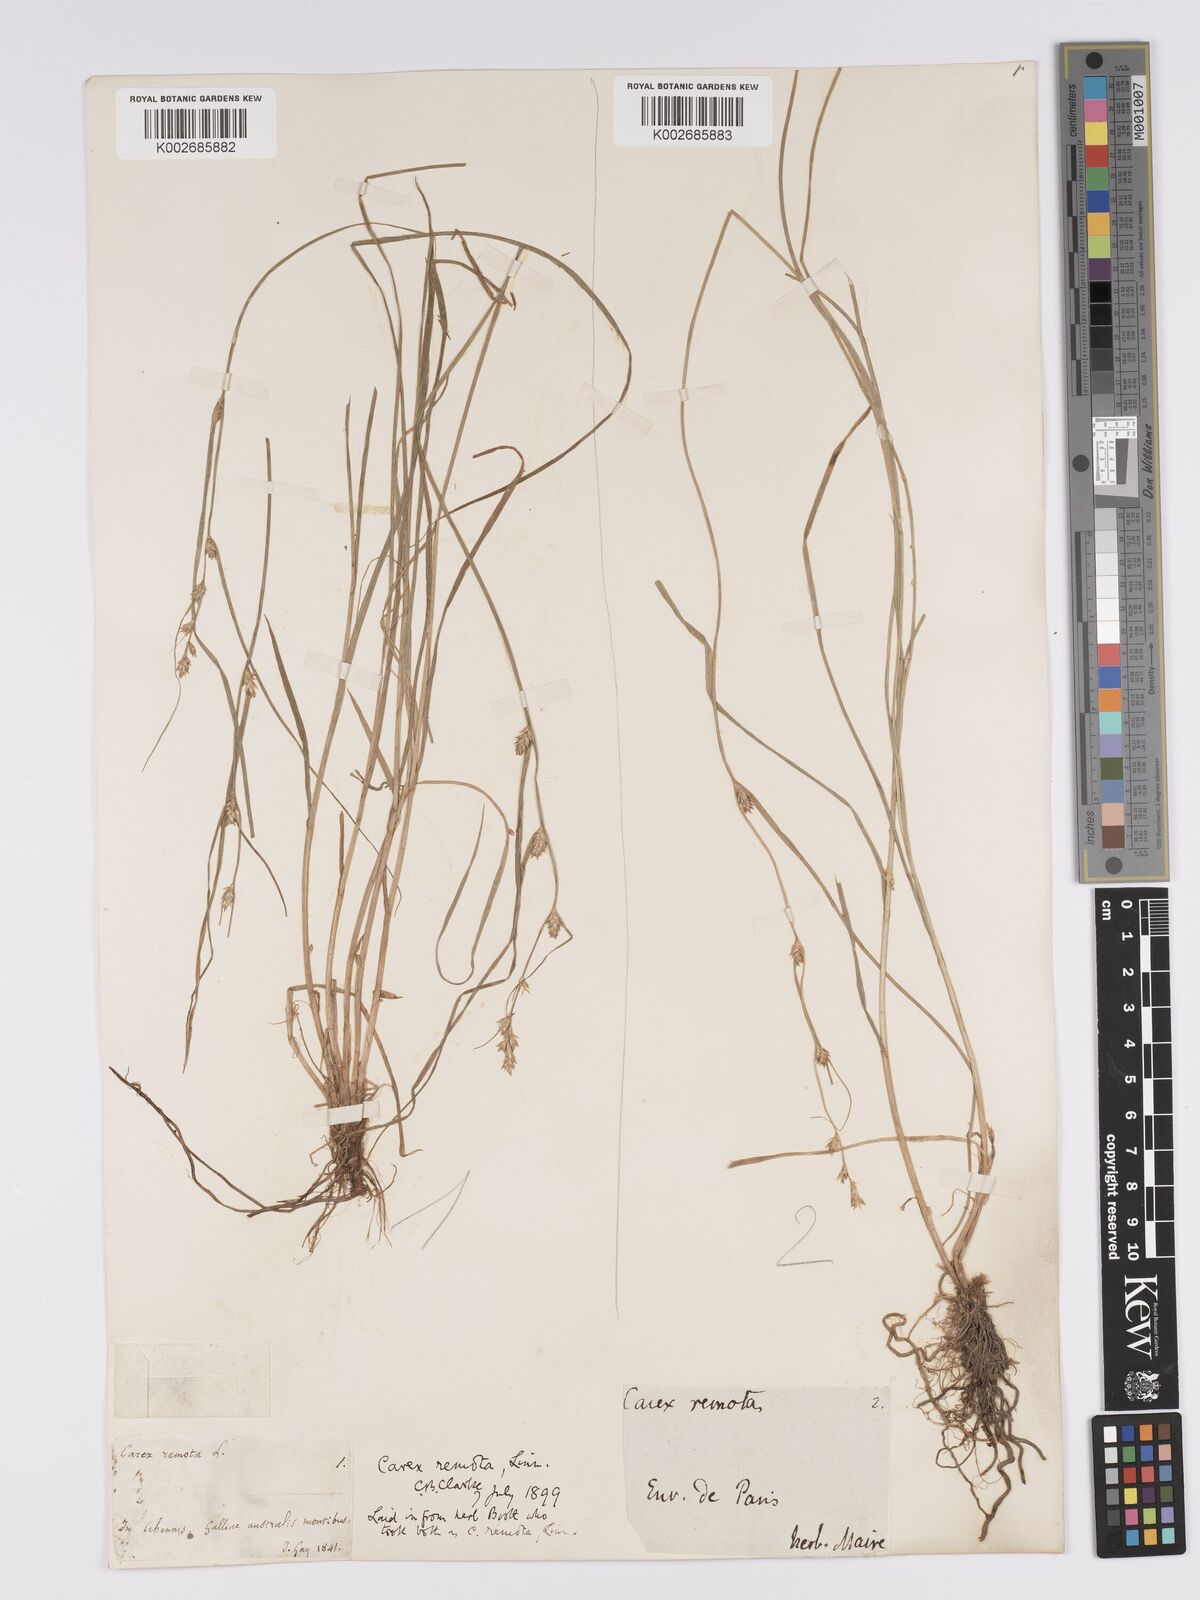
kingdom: Plantae
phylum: Tracheophyta
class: Liliopsida
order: Poales
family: Cyperaceae
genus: Carex
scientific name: Carex remota
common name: Remote sedge
